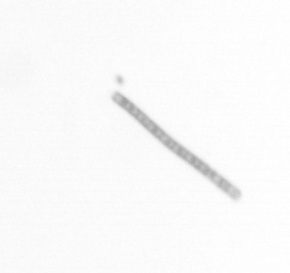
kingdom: Chromista
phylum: Ochrophyta
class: Bacillariophyceae
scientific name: Bacillariophyceae
